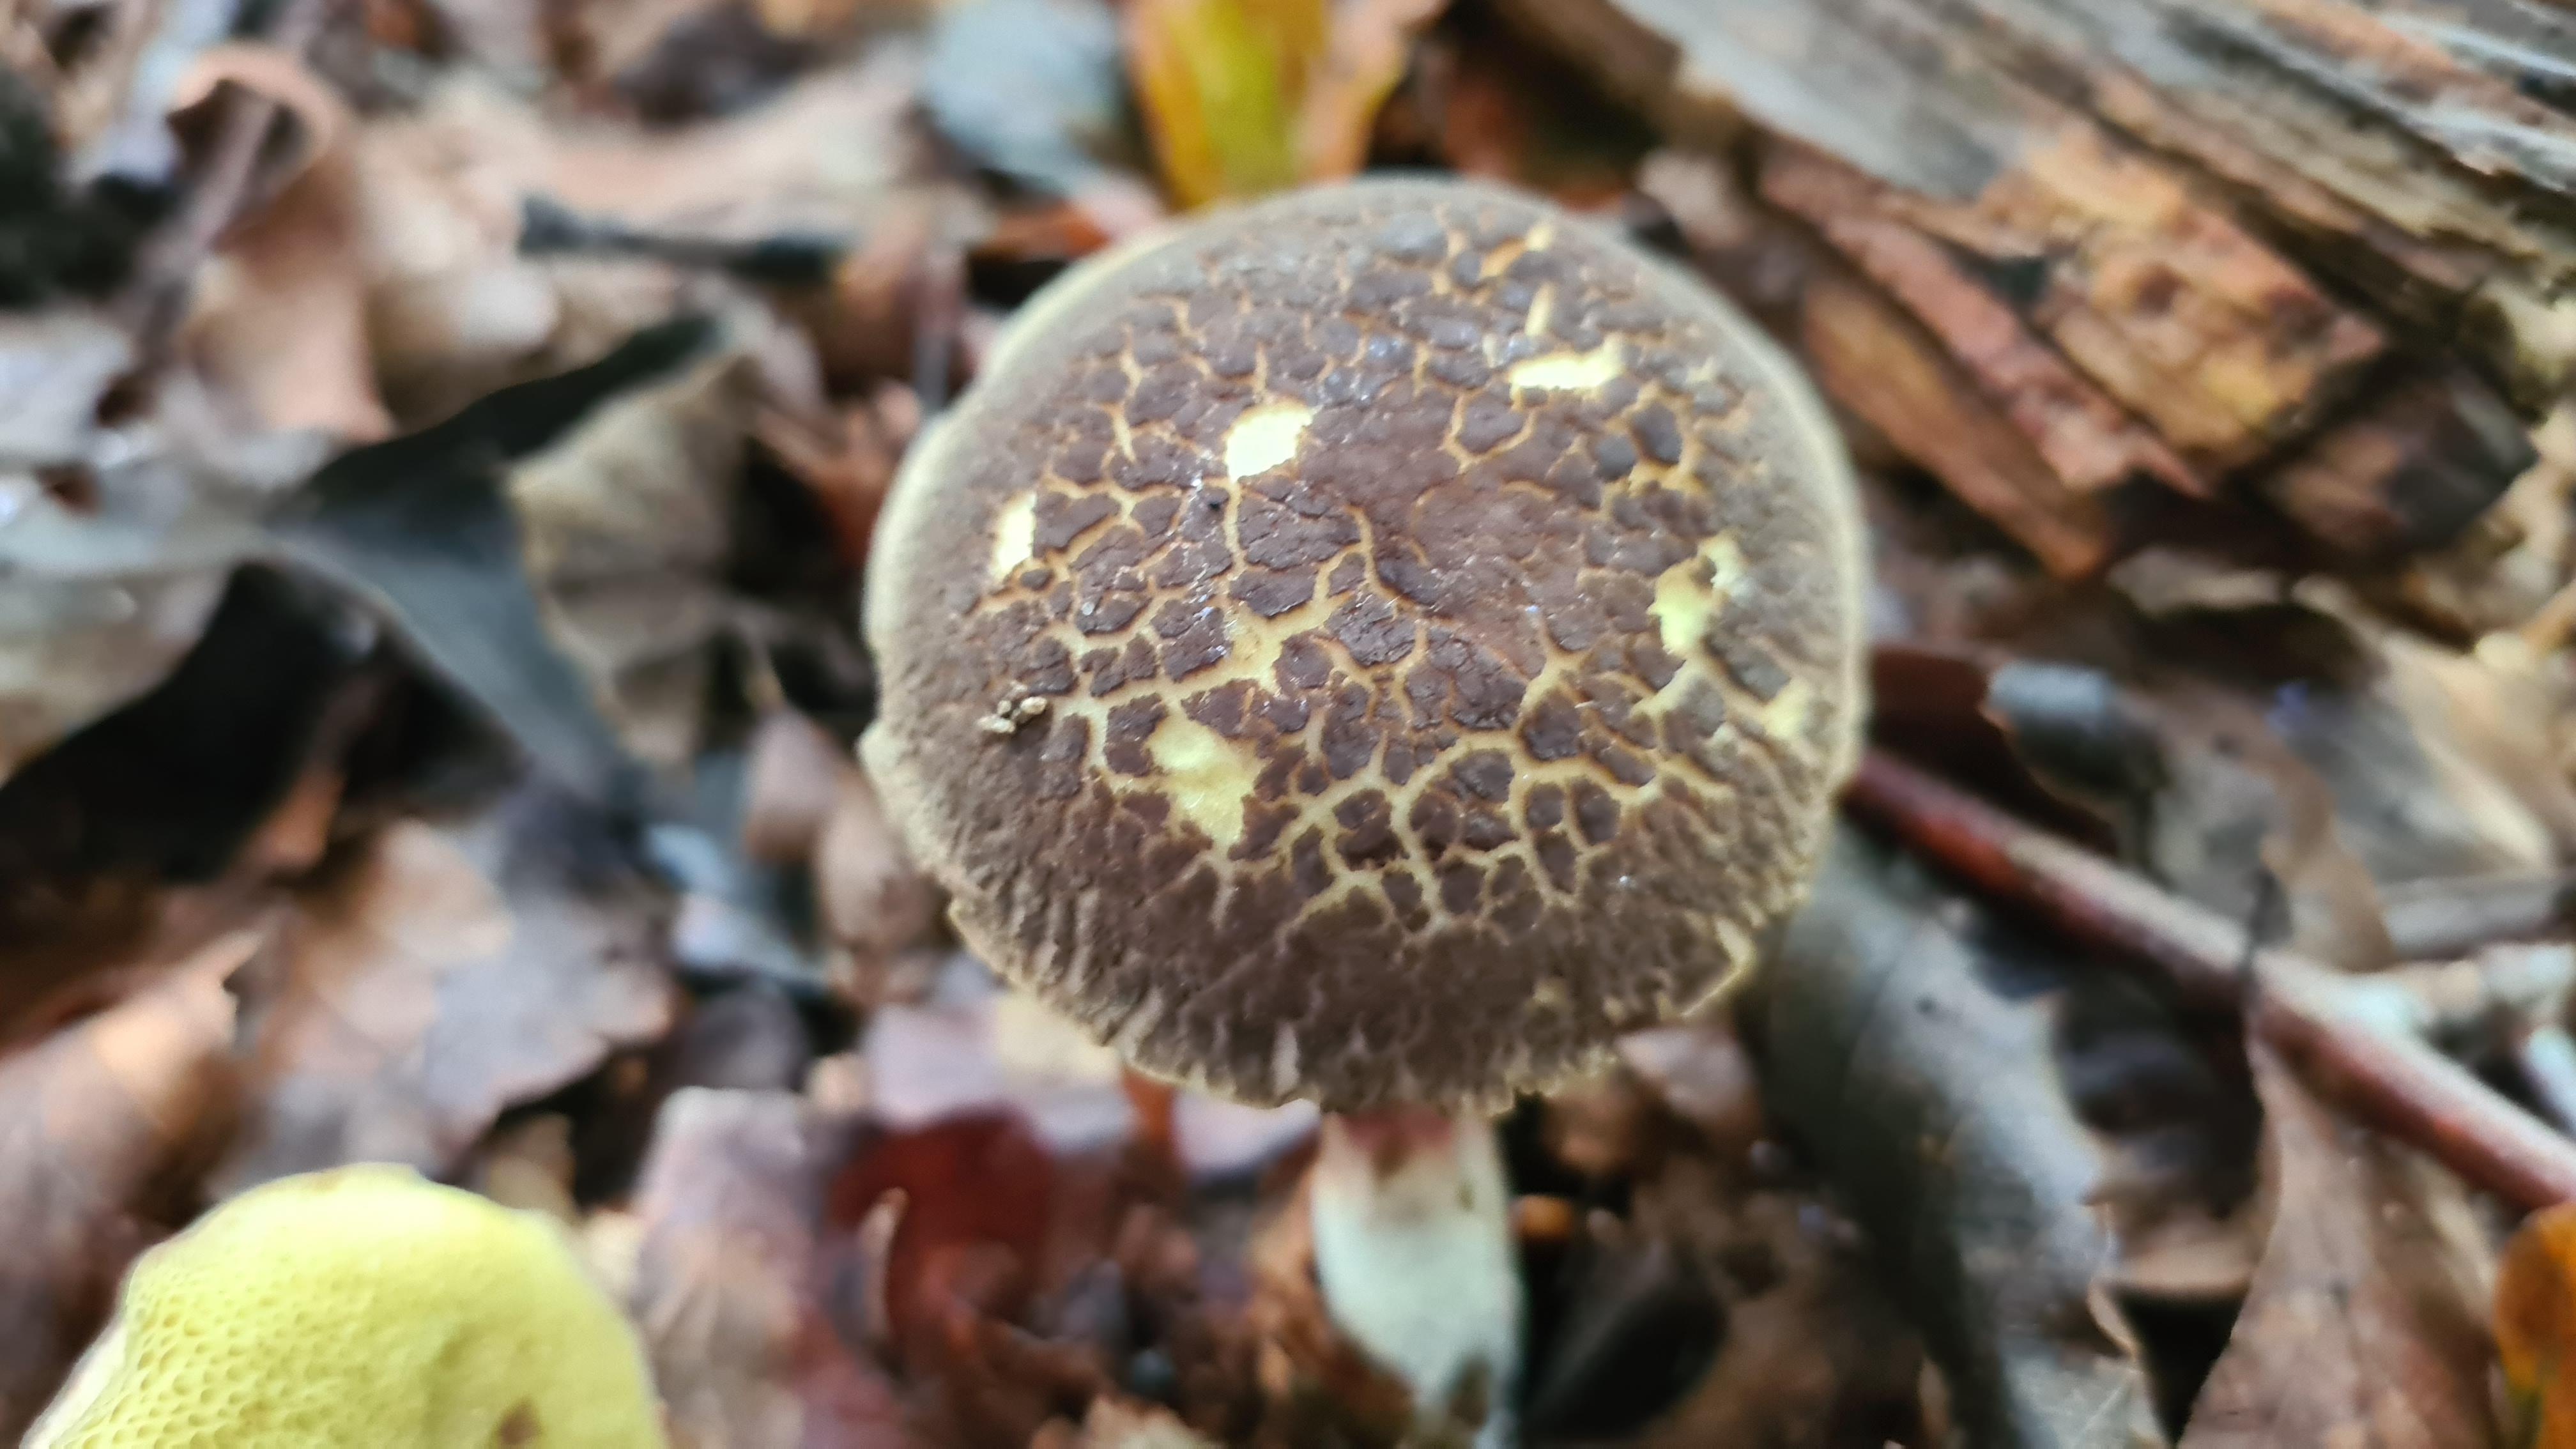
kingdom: Fungi
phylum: Basidiomycota
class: Agaricomycetes
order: Boletales
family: Boletaceae
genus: Xerocomellus
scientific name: Xerocomellus chrysenteron
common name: rødsprukken rørhat
